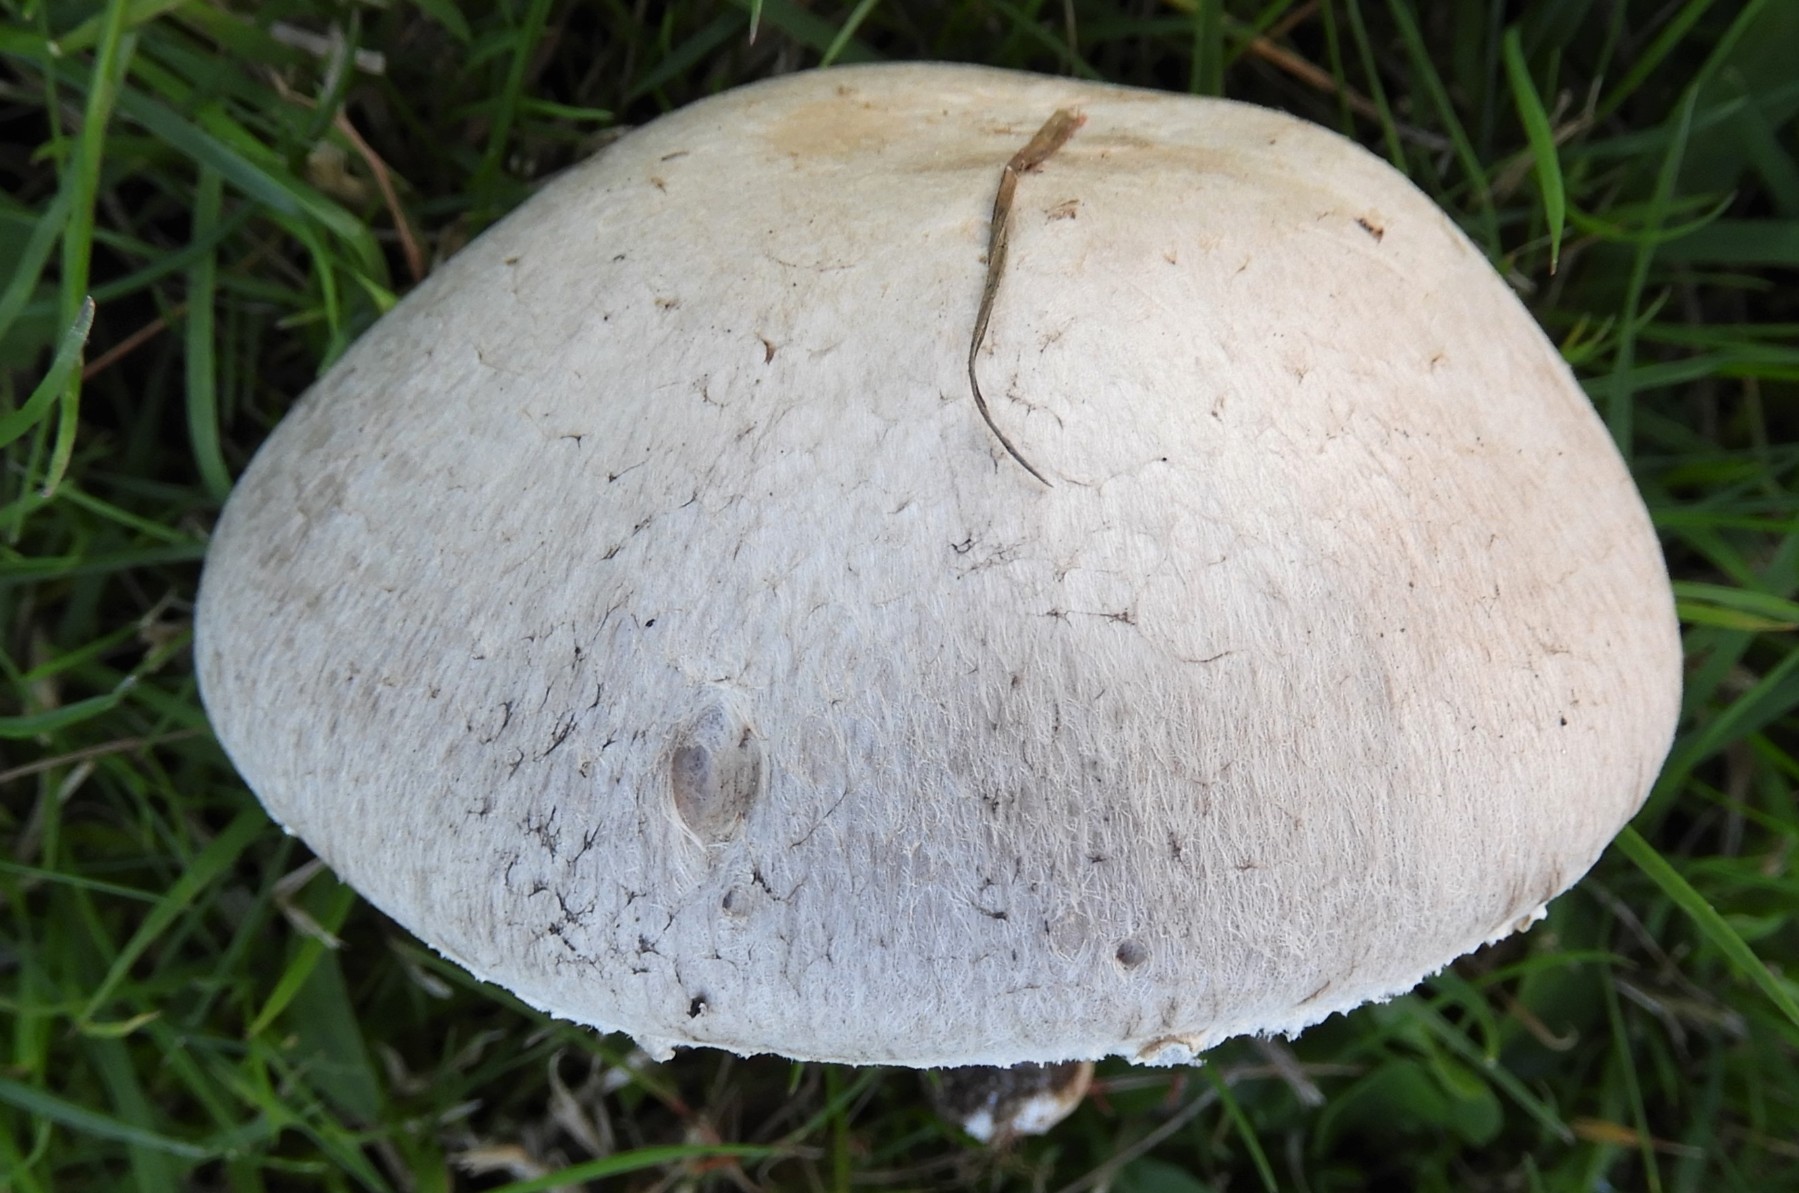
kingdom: Fungi
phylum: Basidiomycota
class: Agaricomycetes
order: Agaricales
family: Agaricaceae
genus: Agaricus
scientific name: Agaricus campestris
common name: mark-champignon
